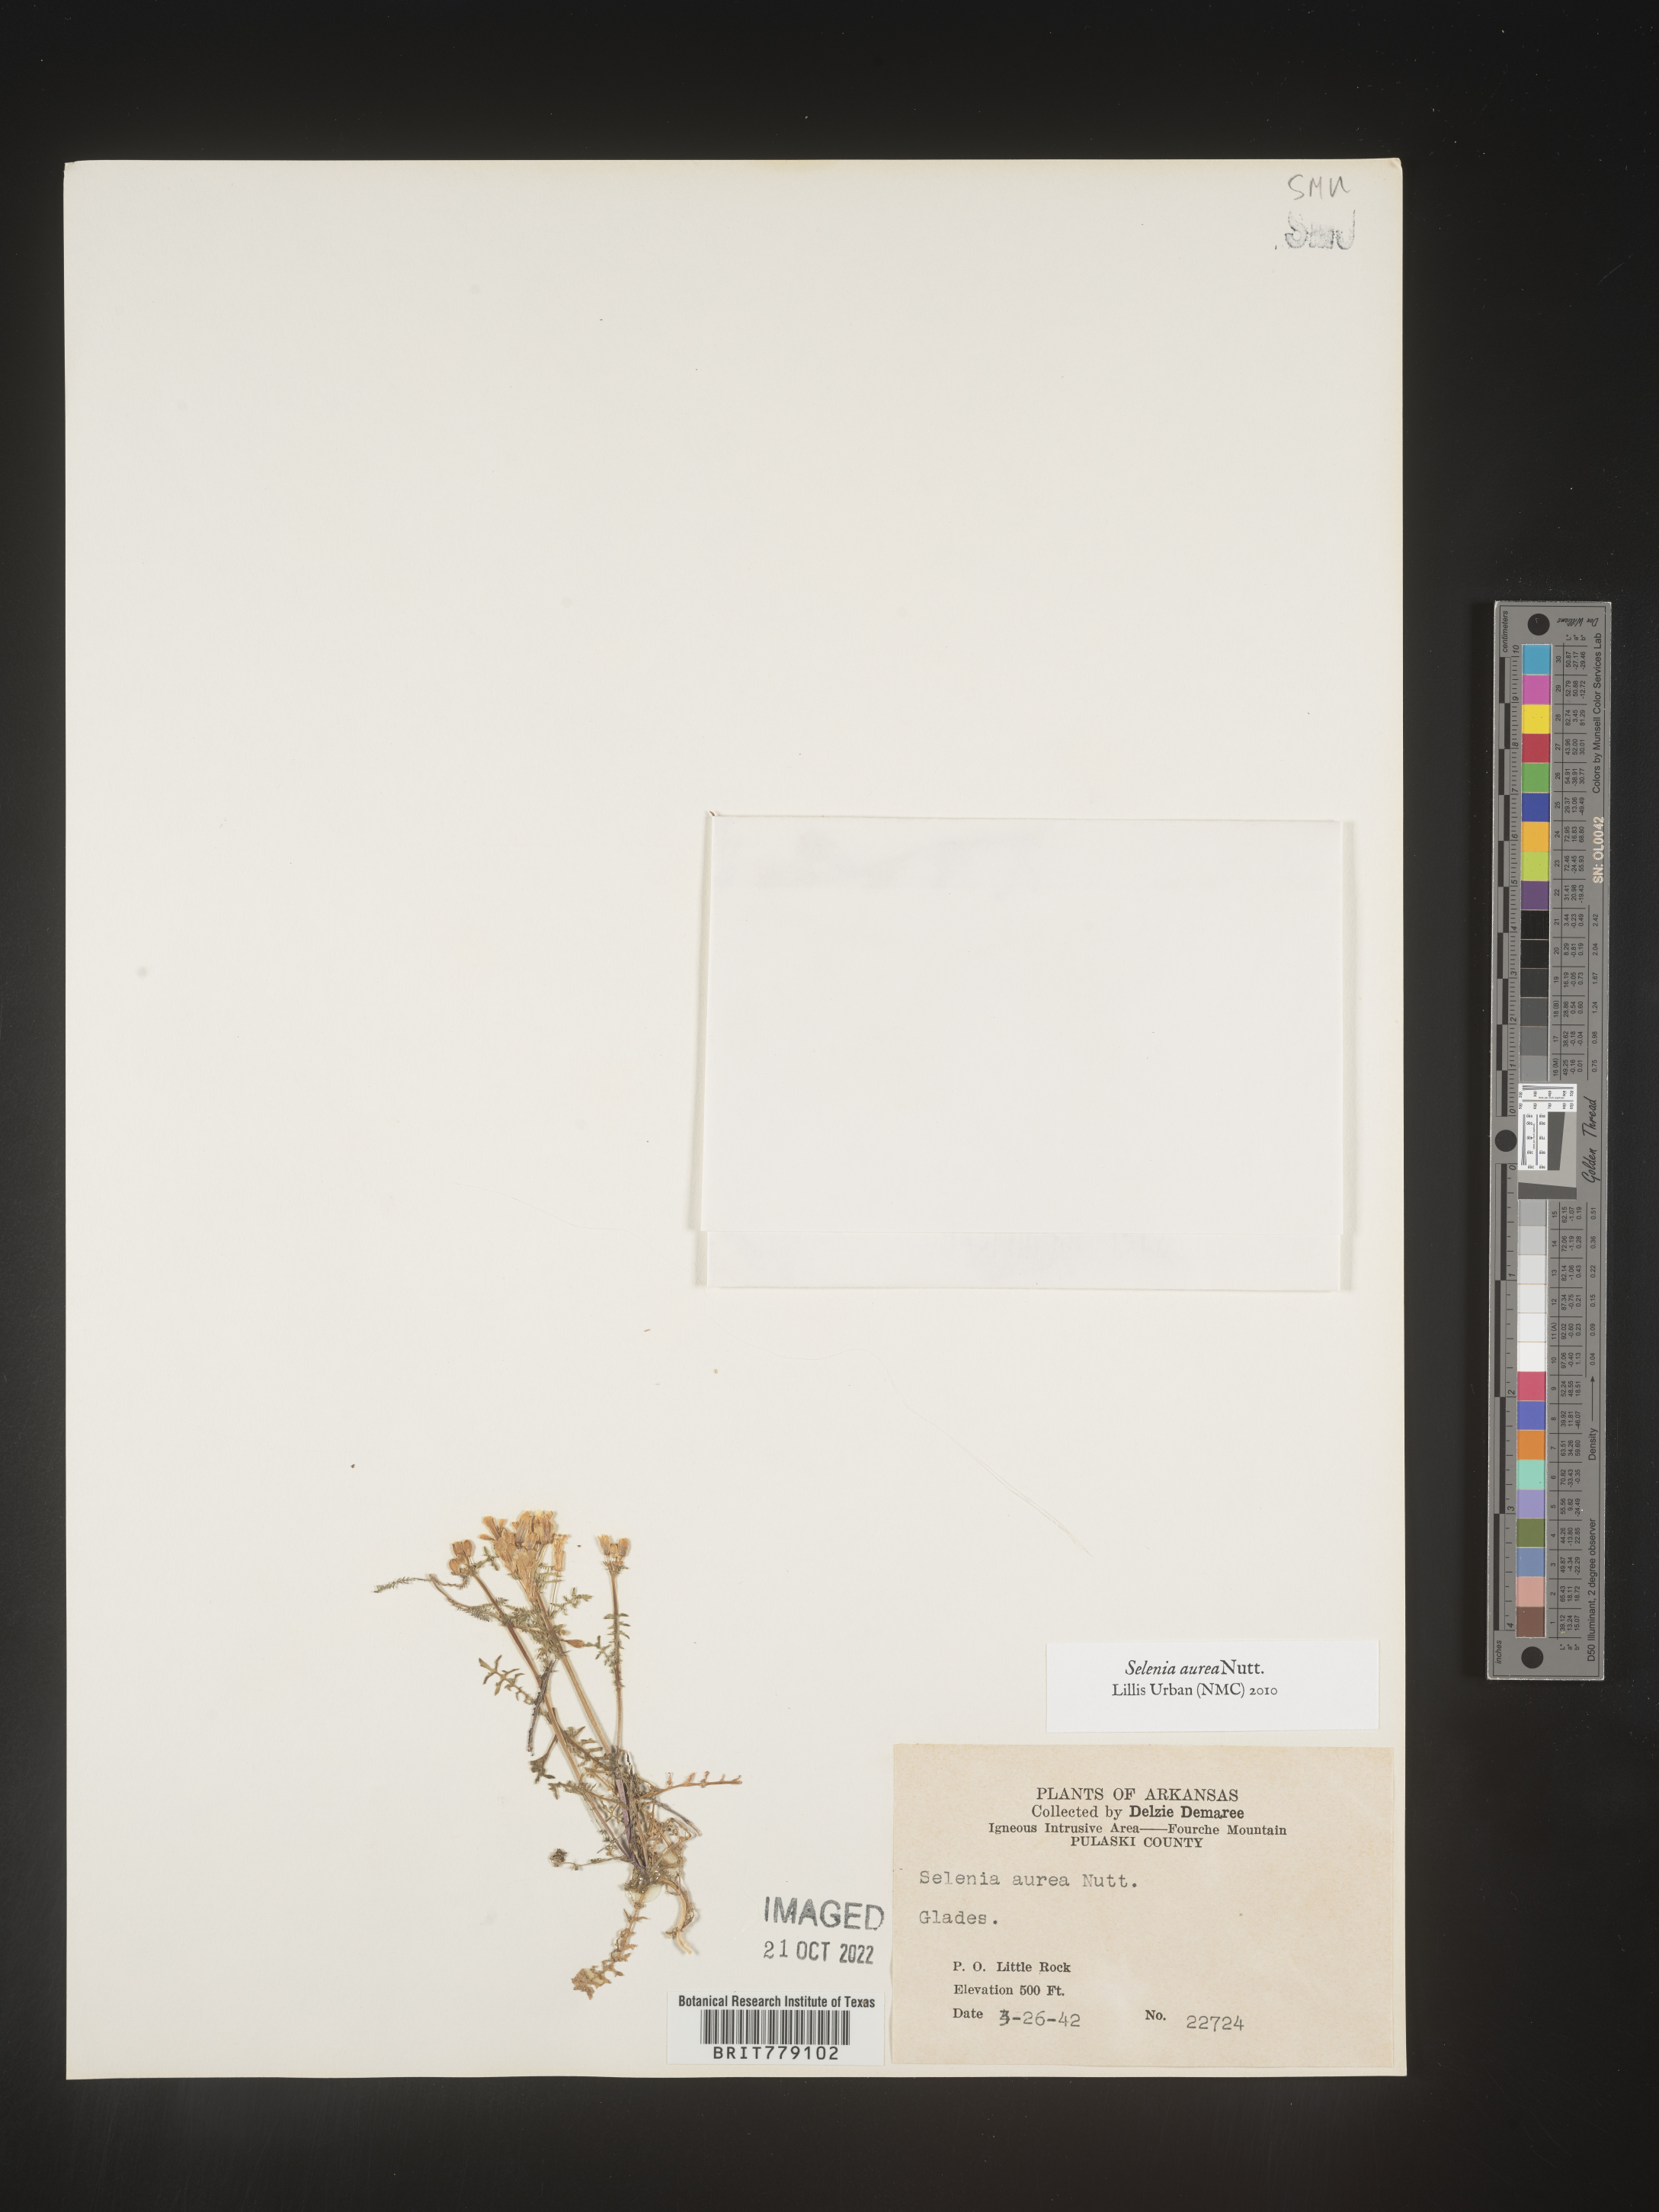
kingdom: Plantae
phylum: Tracheophyta
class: Magnoliopsida
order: Brassicales
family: Brassicaceae
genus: Selenia
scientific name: Selenia
